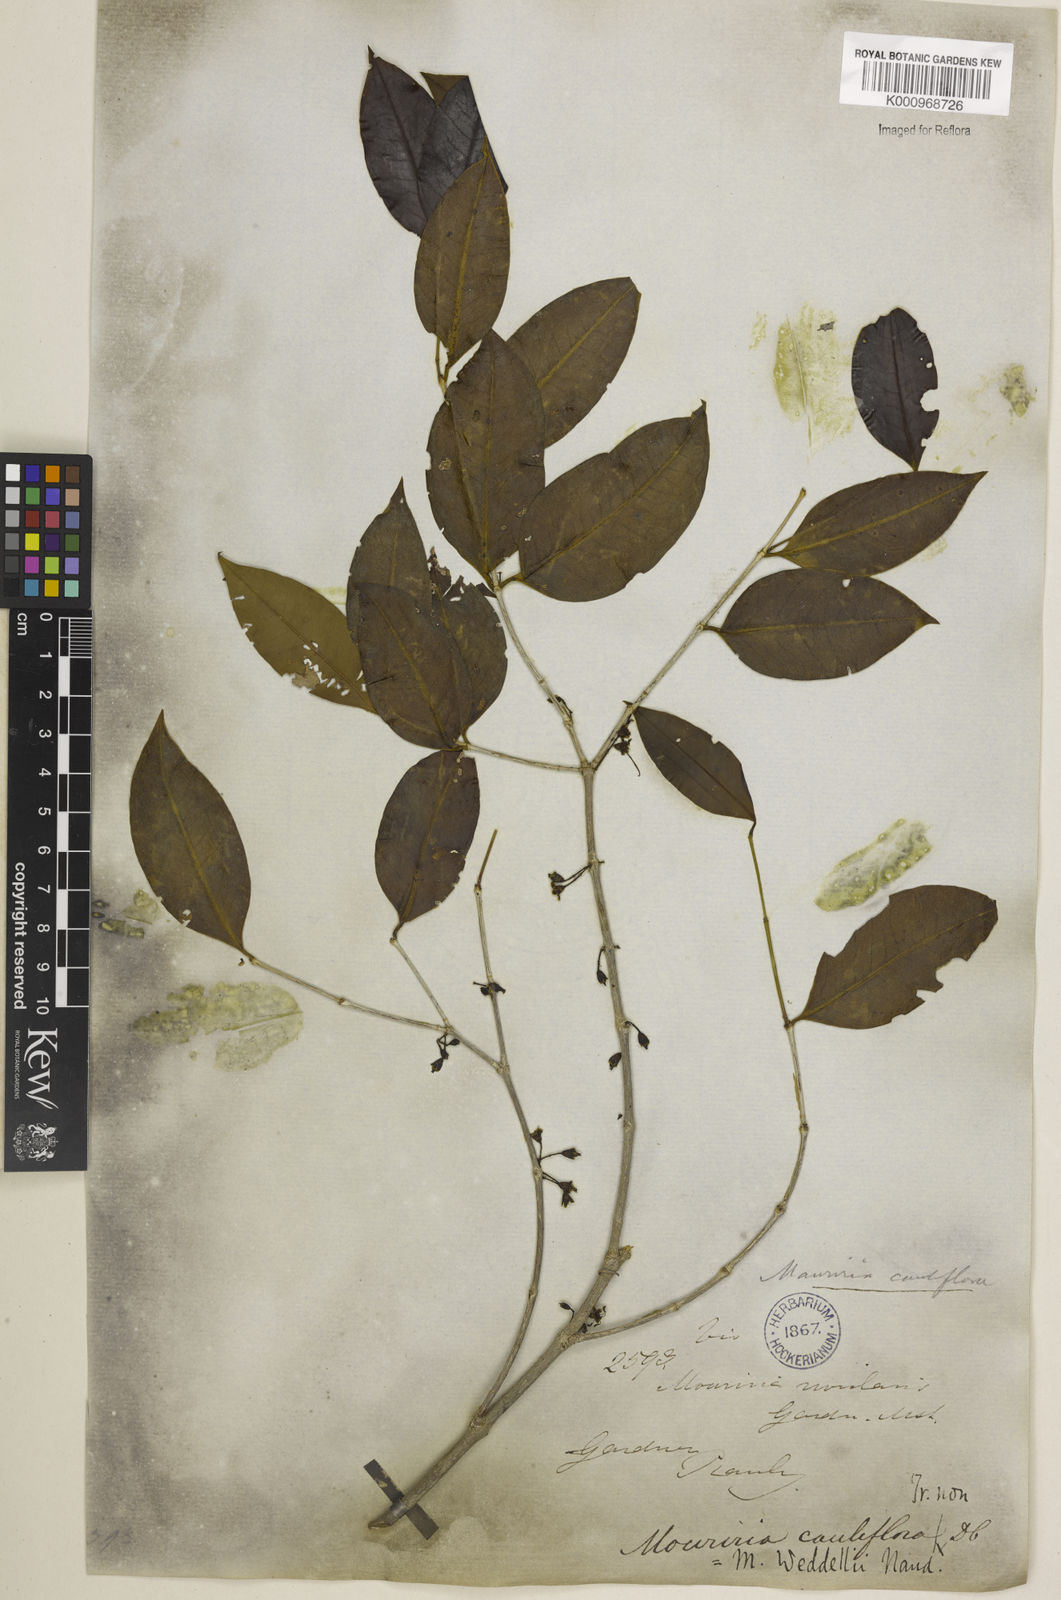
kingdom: Plantae
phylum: Tracheophyta
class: Magnoliopsida
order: Myrtales
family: Melastomataceae
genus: Mouriri
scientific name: Mouriri guianensis
